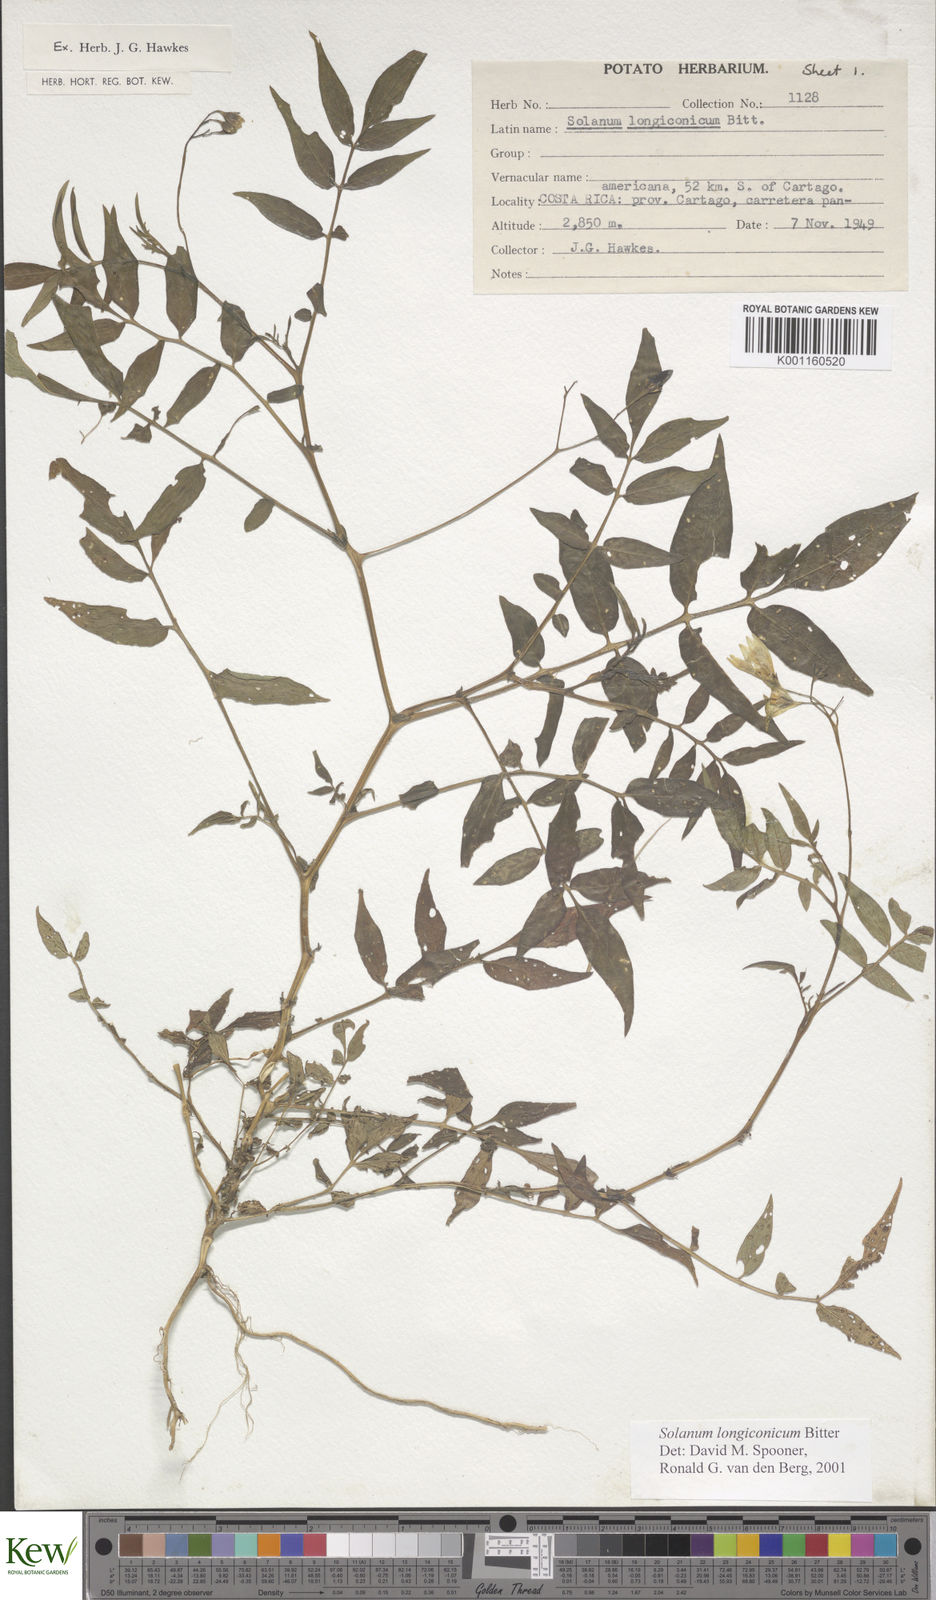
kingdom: Plantae
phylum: Tracheophyta
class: Magnoliopsida
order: Solanales
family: Solanaceae
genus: Solanum
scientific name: Solanum longiconicum
